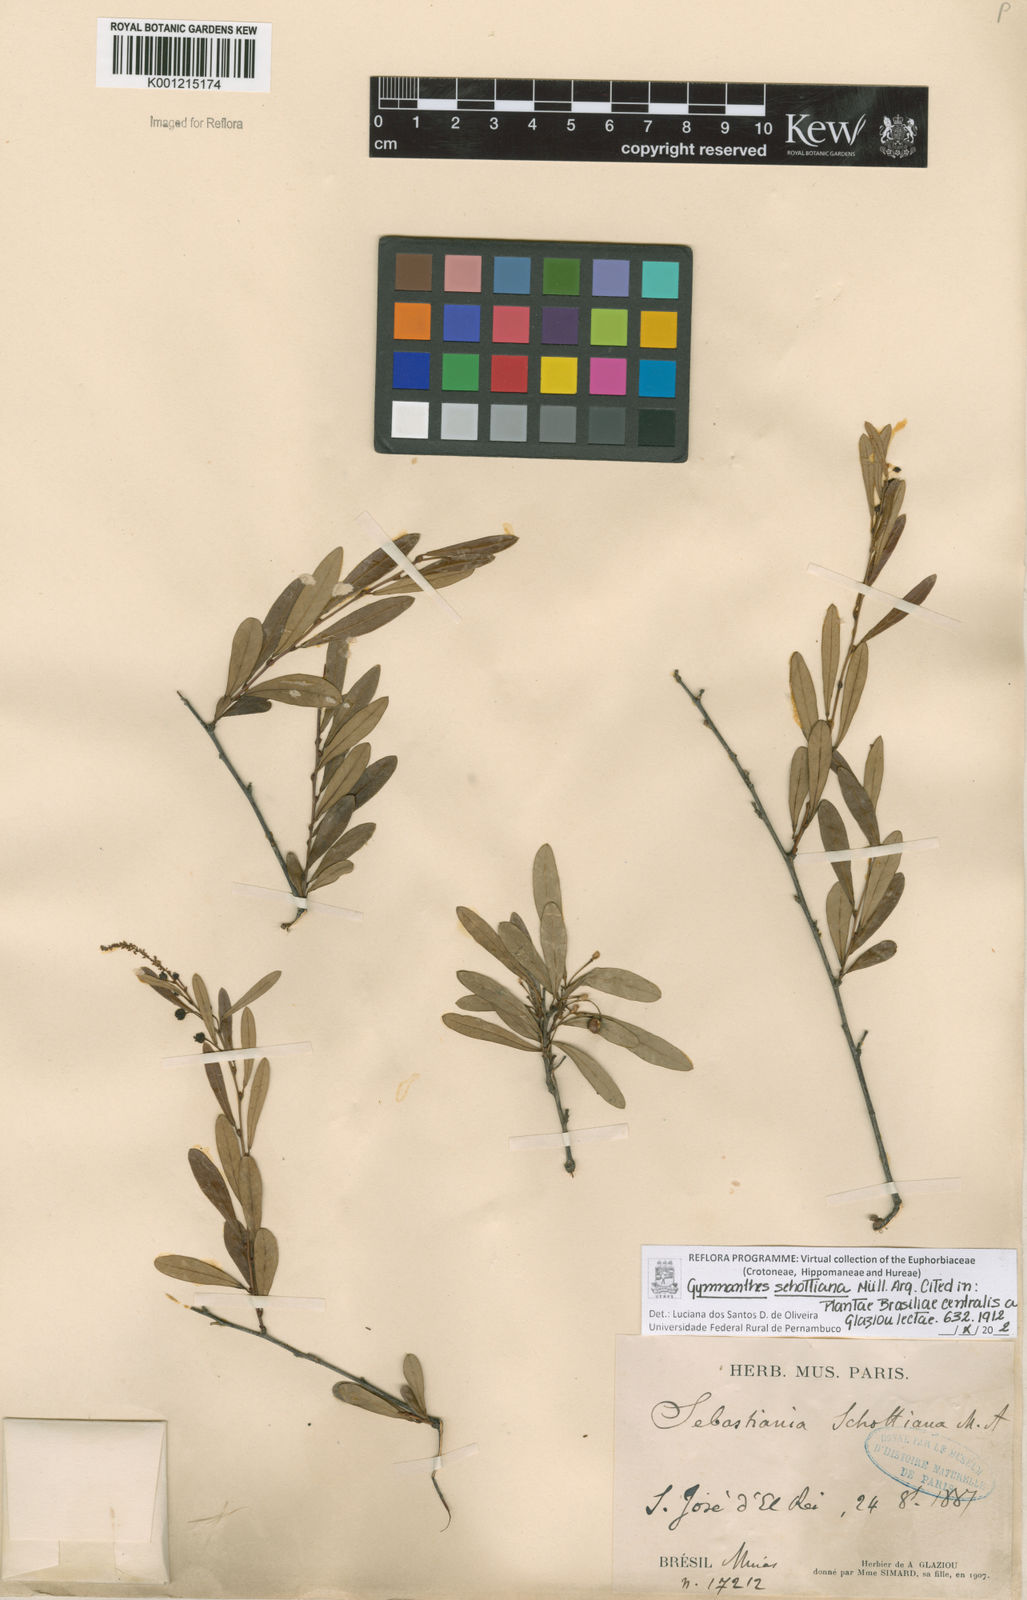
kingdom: Plantae
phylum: Tracheophyta
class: Magnoliopsida
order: Malpighiales
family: Euphorbiaceae
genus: Gymnanthes
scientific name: Gymnanthes
